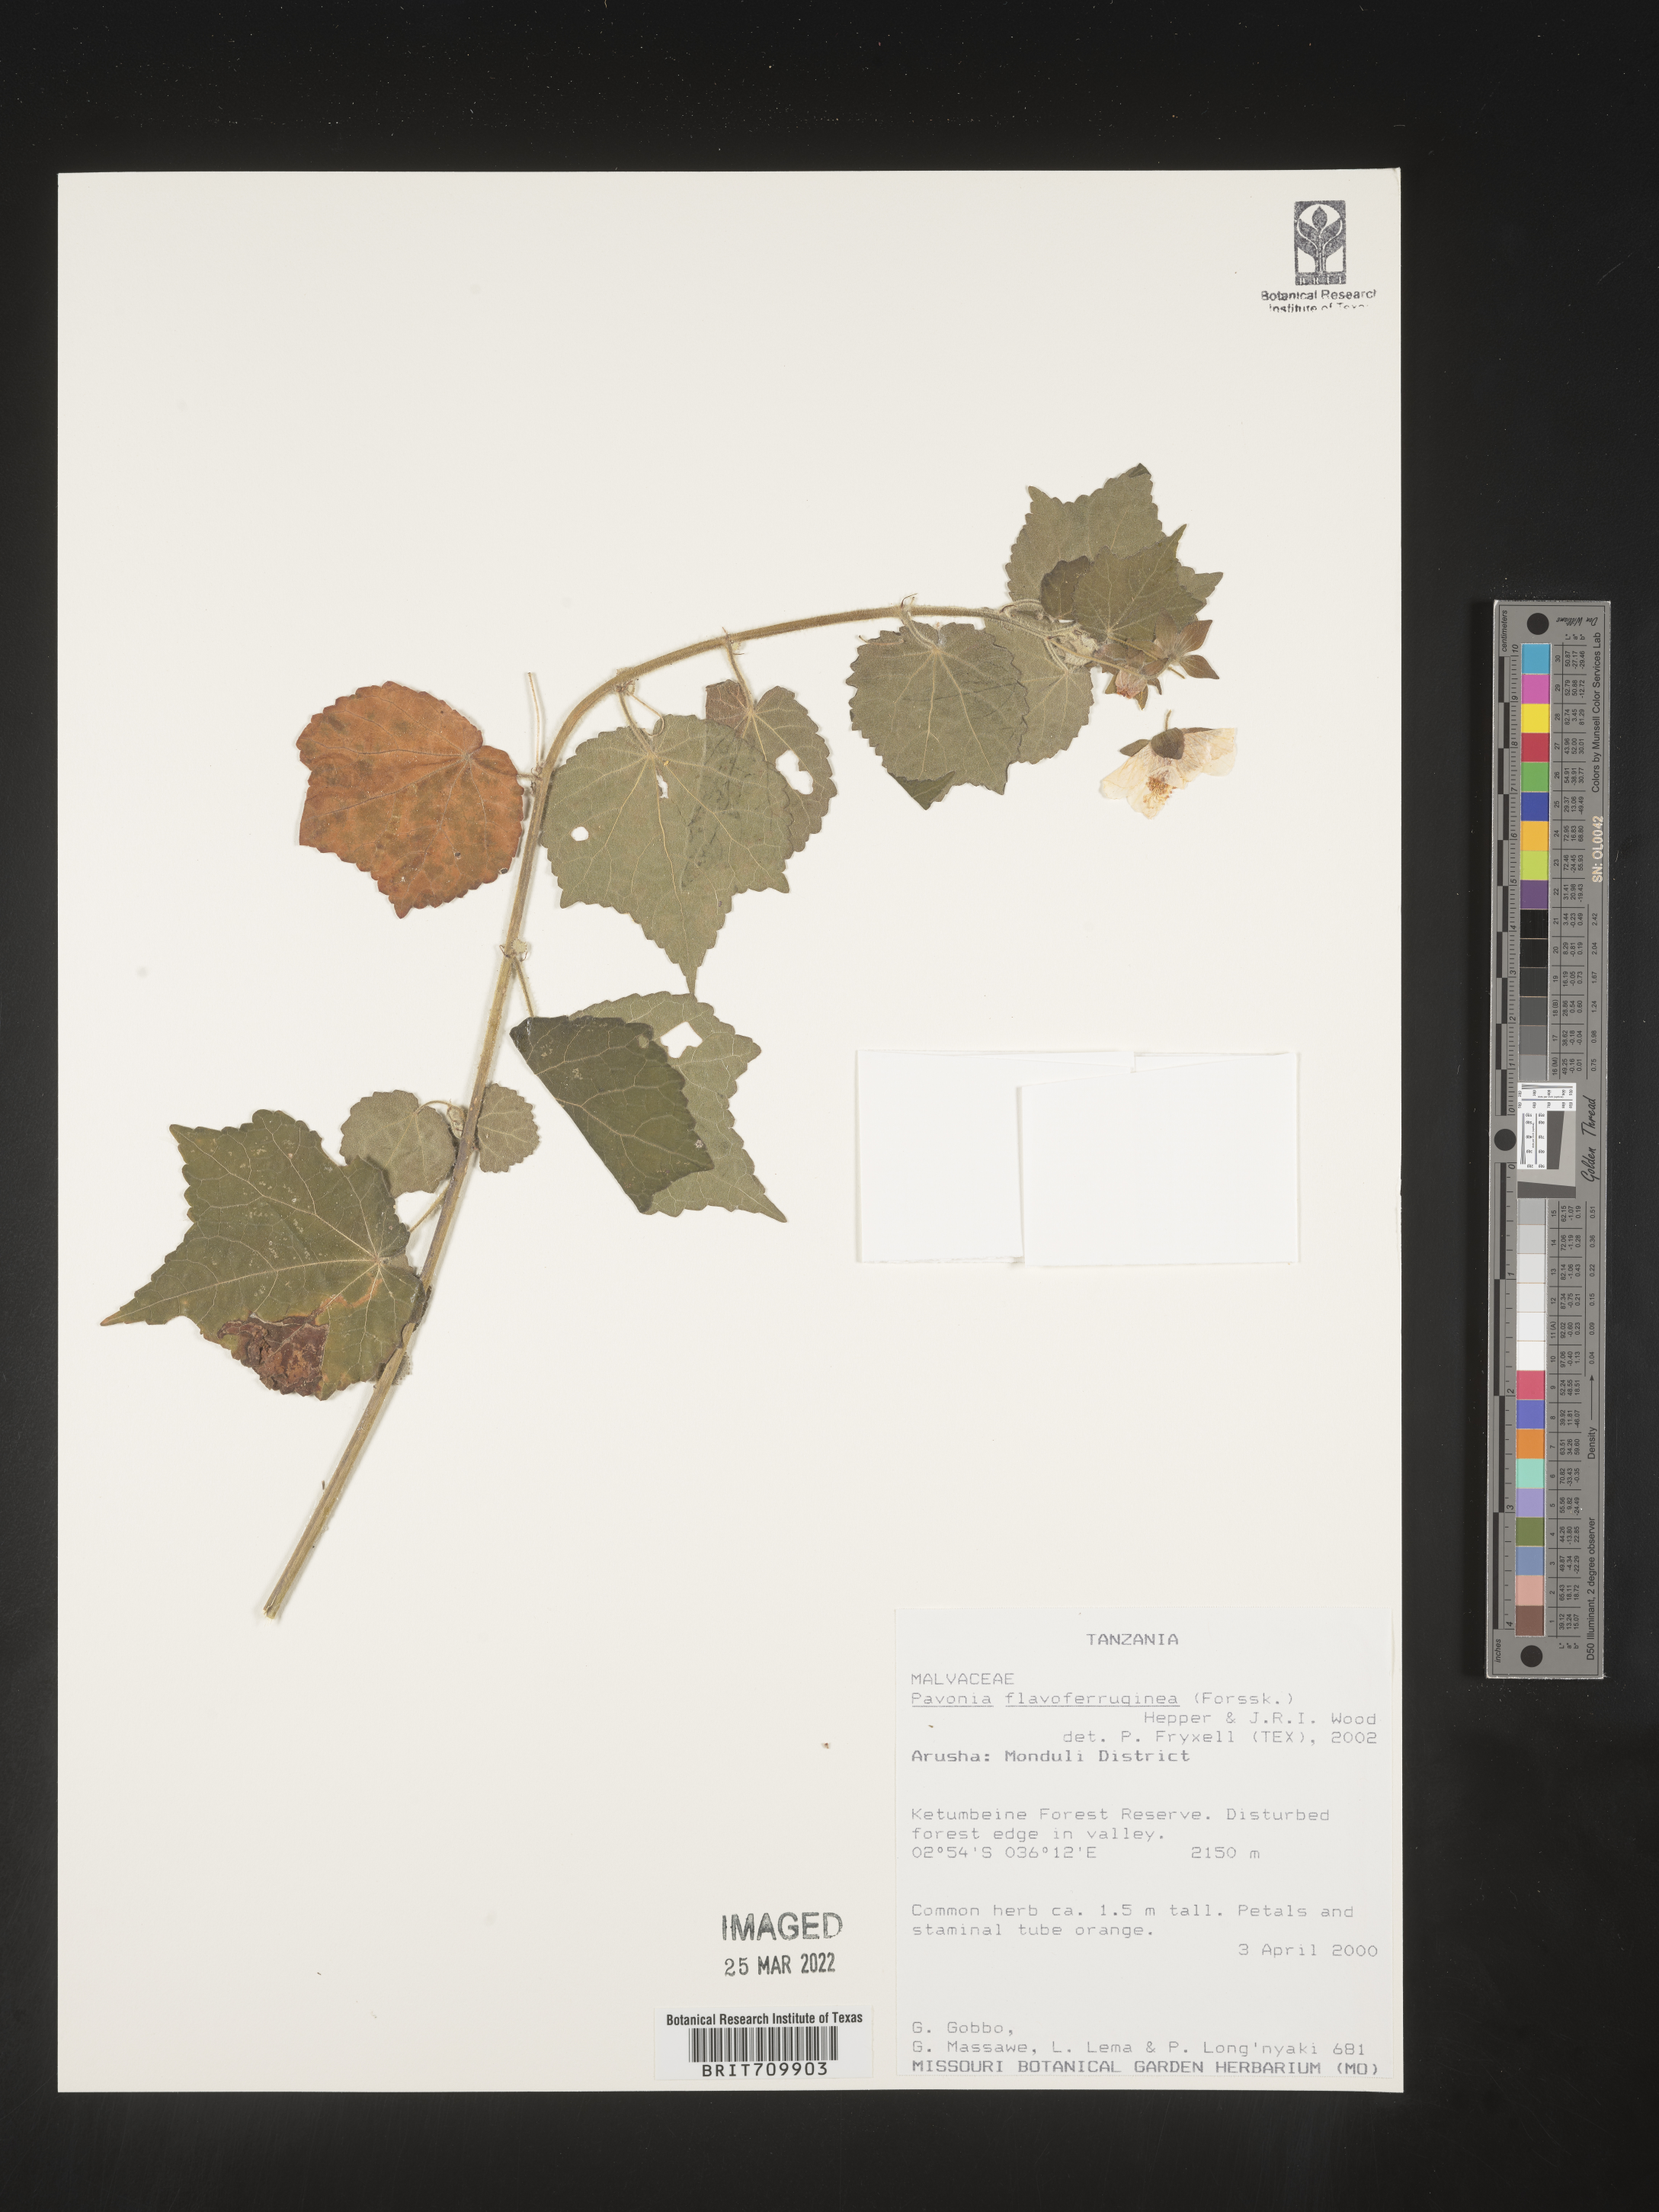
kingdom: Plantae
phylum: Tracheophyta
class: Magnoliopsida
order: Malvales
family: Malvaceae
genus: Pavonia
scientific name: Pavonia
